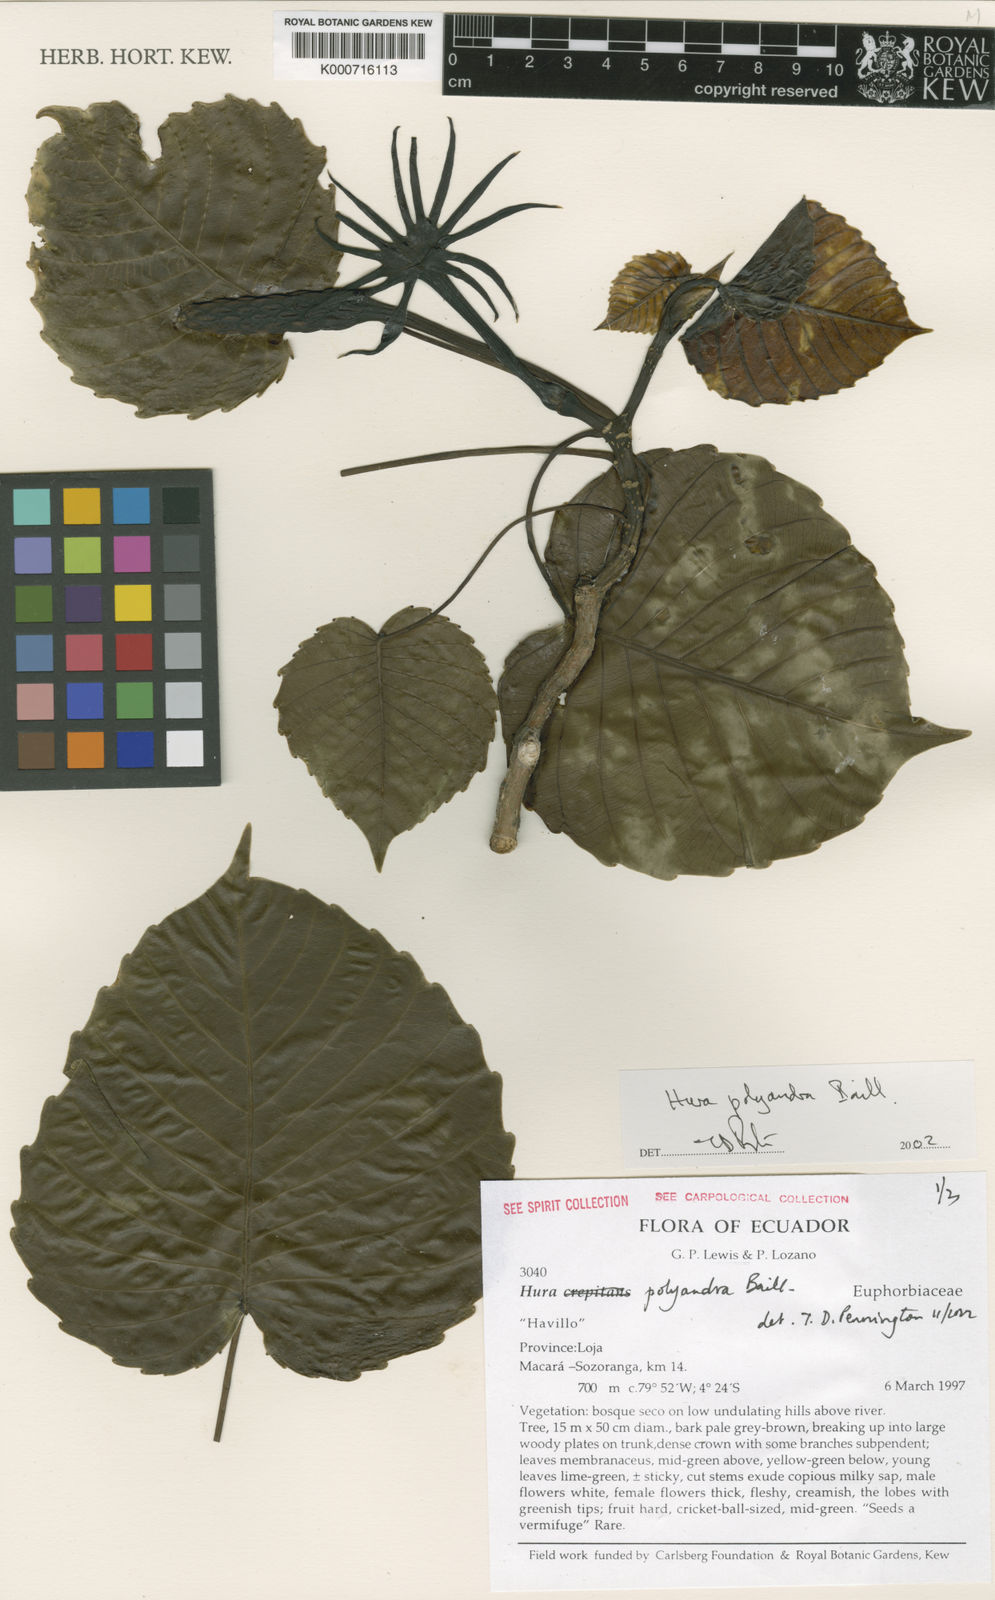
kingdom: Plantae
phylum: Tracheophyta
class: Magnoliopsida
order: Malpighiales
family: Euphorbiaceae
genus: Hura
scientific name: Hura polyandra
